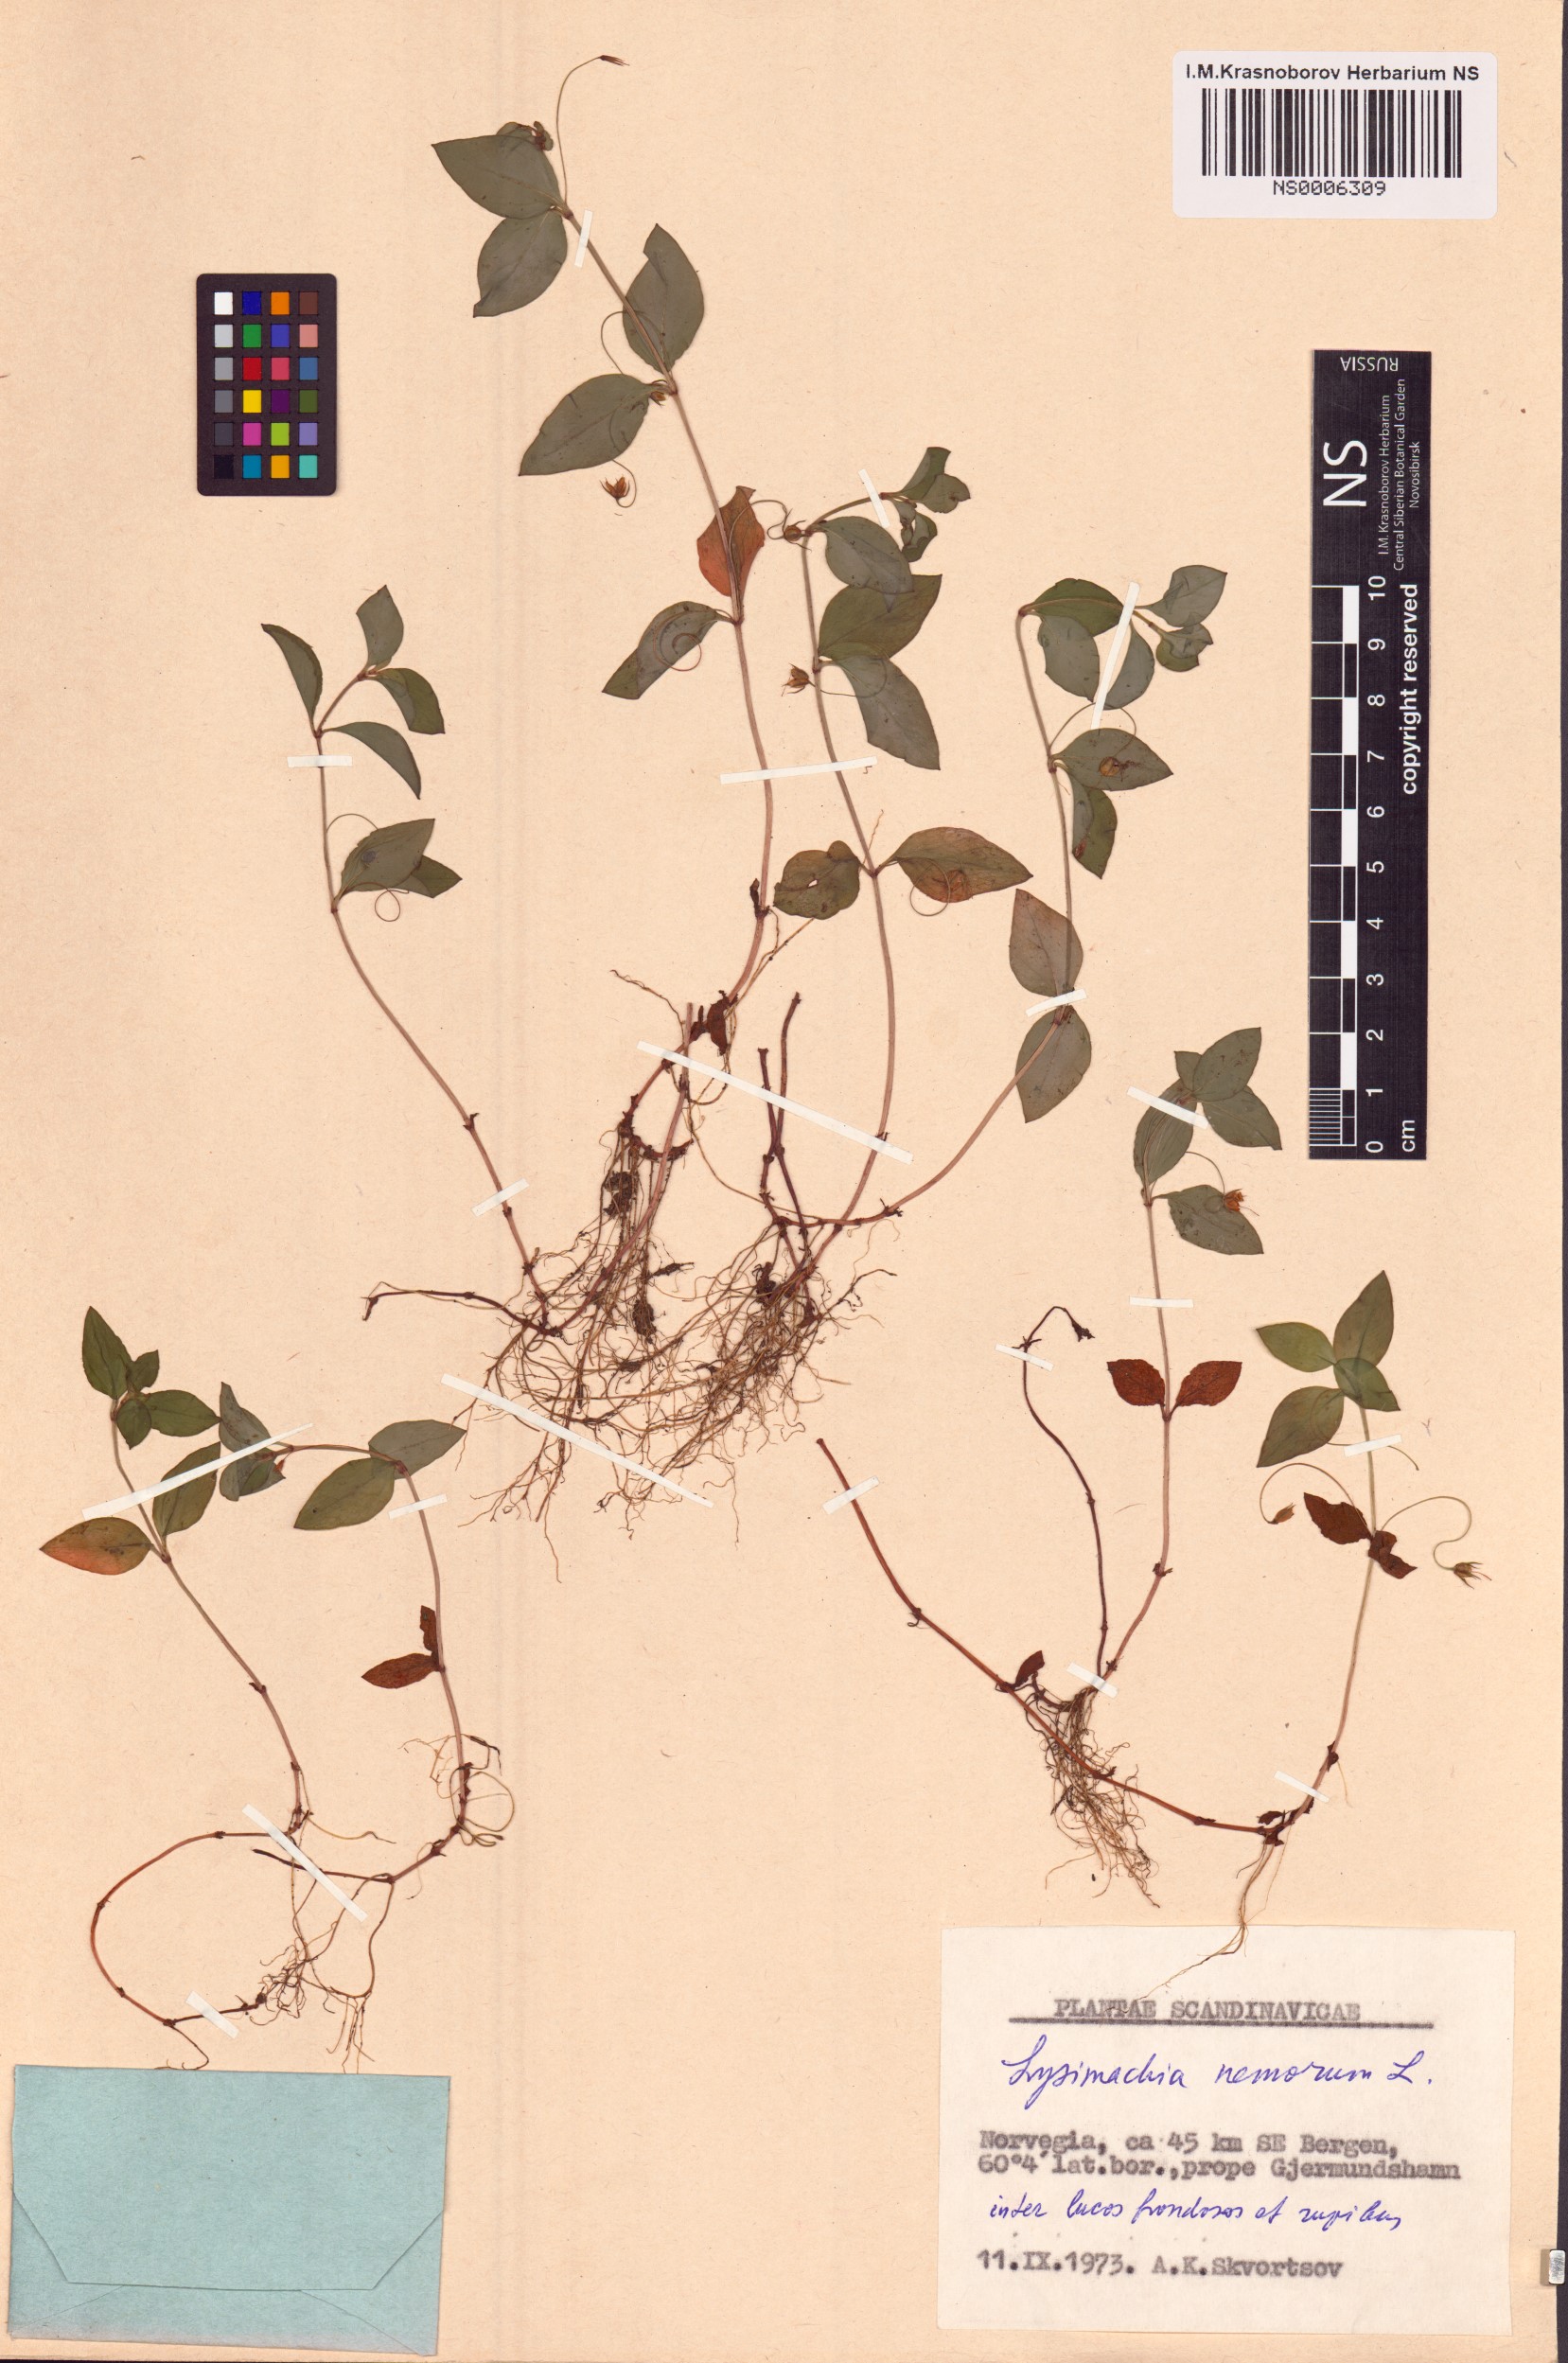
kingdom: Plantae
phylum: Tracheophyta
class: Magnoliopsida
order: Ericales
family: Primulaceae
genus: Lysimachia
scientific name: Lysimachia nemorum
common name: Yellow pimpernel
